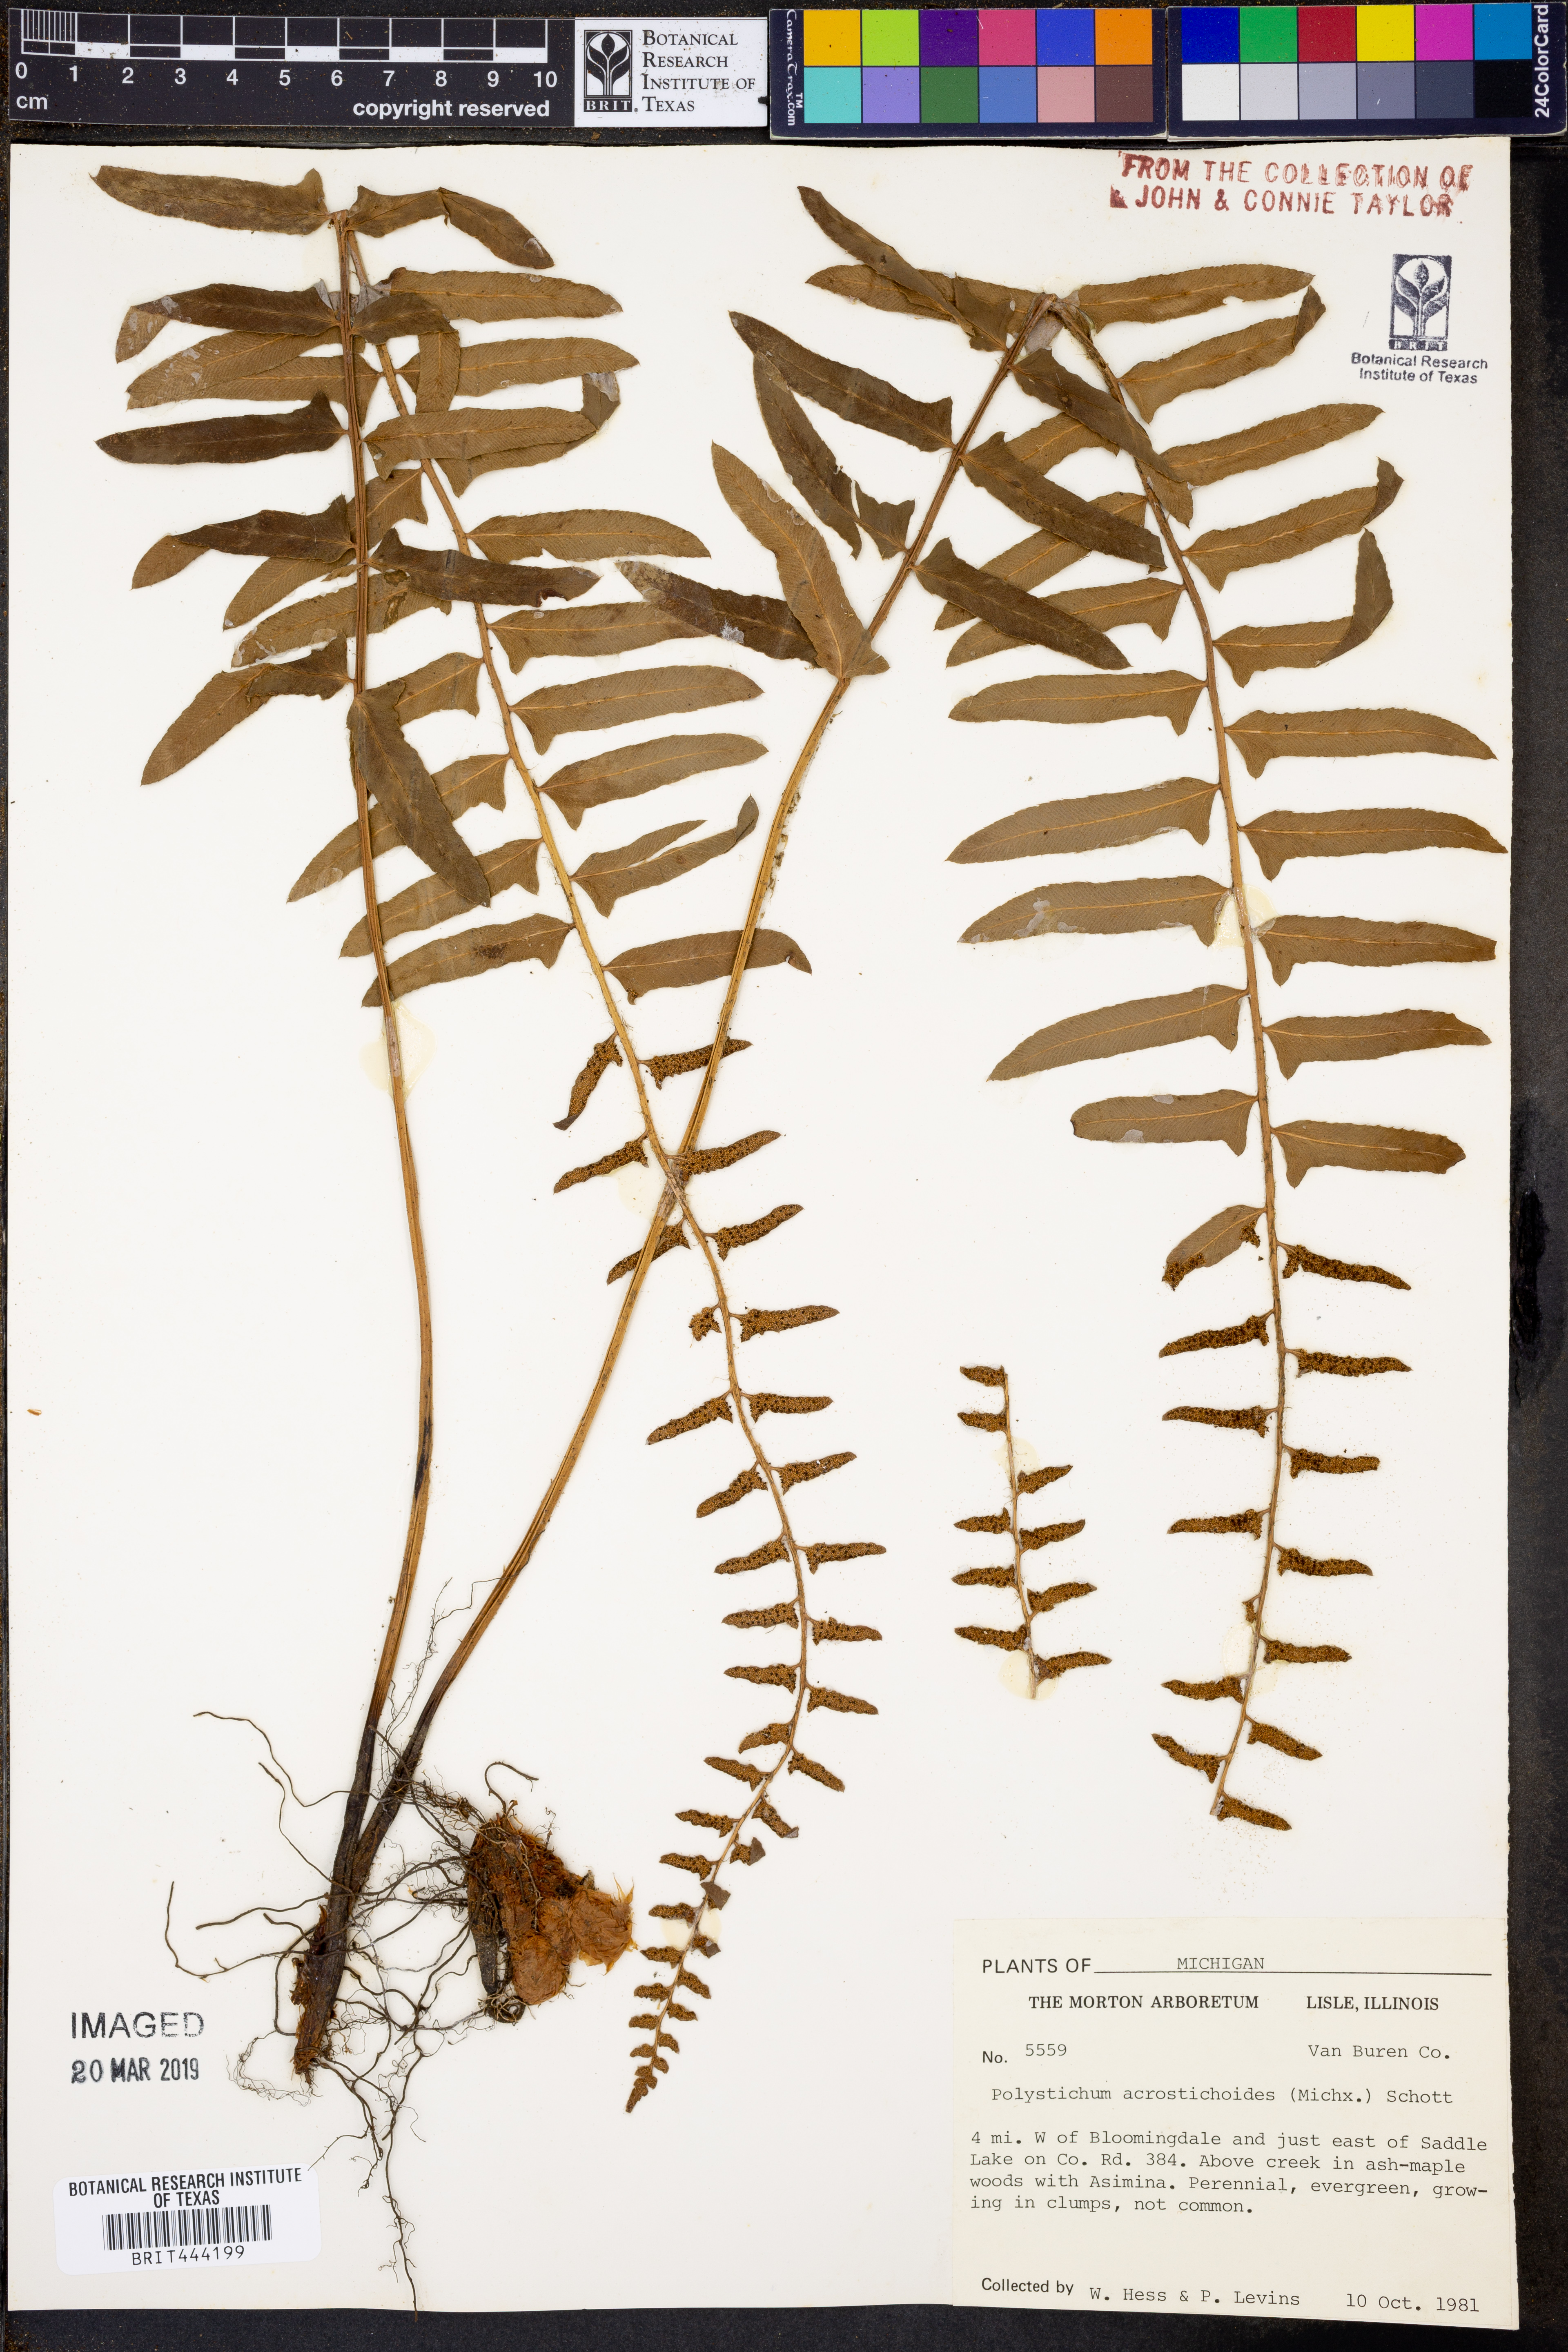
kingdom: Plantae
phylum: Tracheophyta
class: Polypodiopsida
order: Polypodiales
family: Dryopteridaceae
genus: Polystichum
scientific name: Polystichum acrostichoides
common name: Christmas fern
